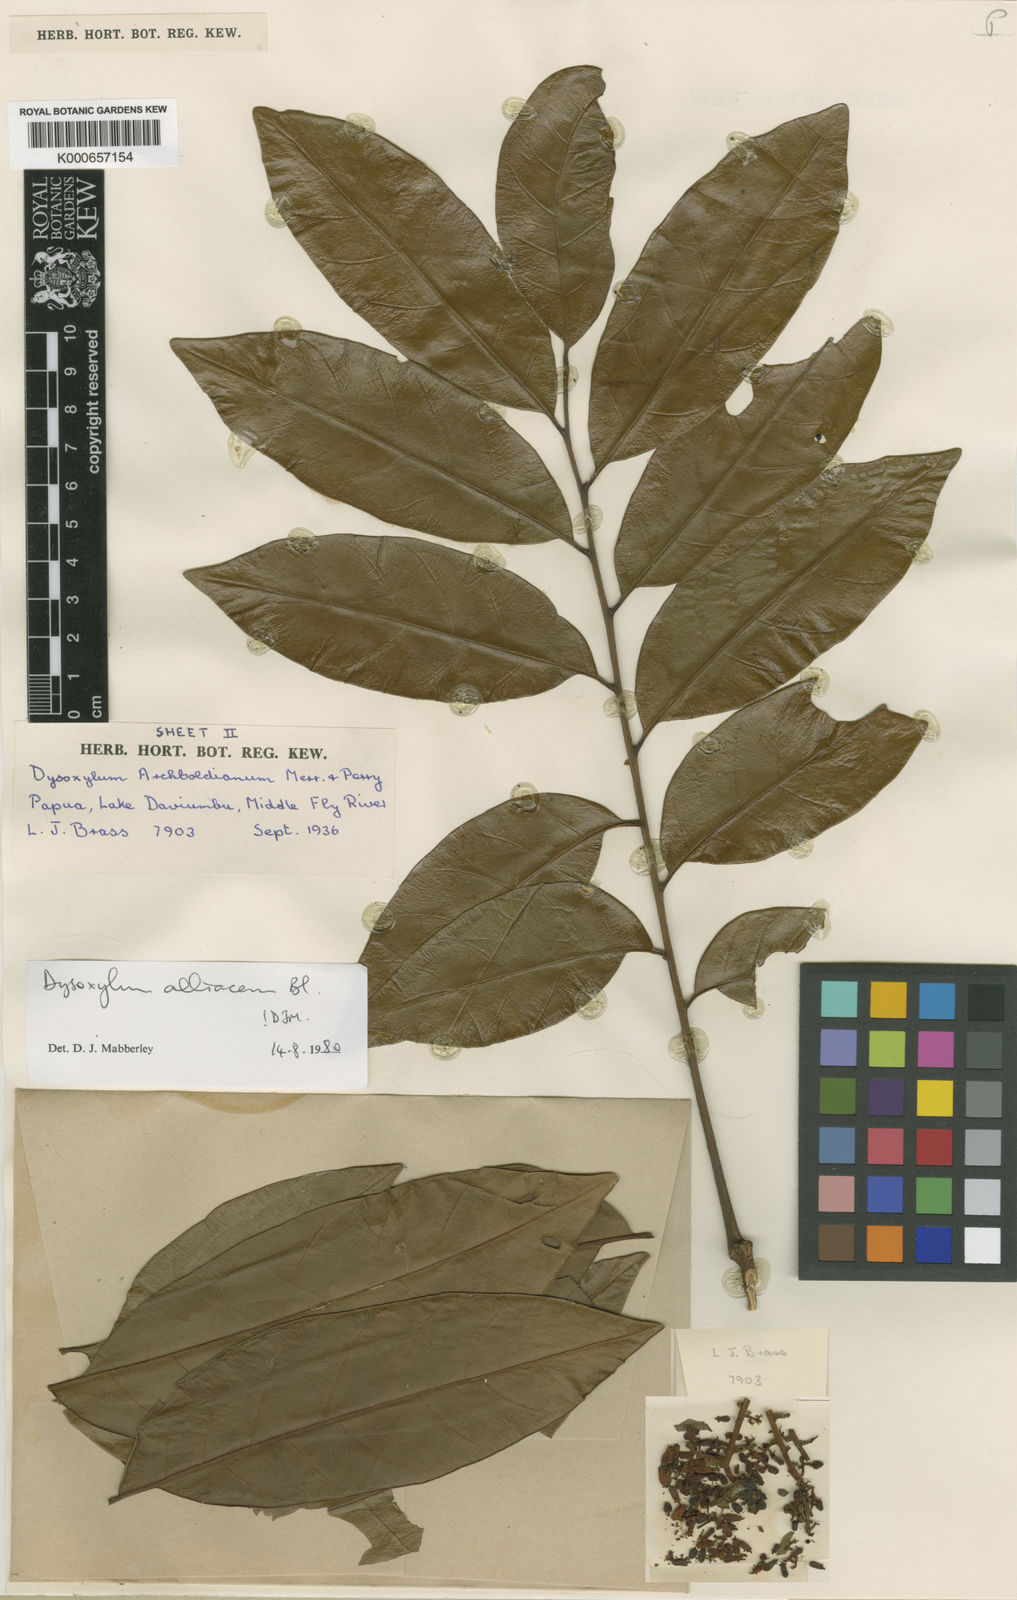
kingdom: Plantae
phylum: Tracheophyta
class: Magnoliopsida
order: Sapindales
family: Meliaceae
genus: Prasoxylon
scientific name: Prasoxylon alliaceum
